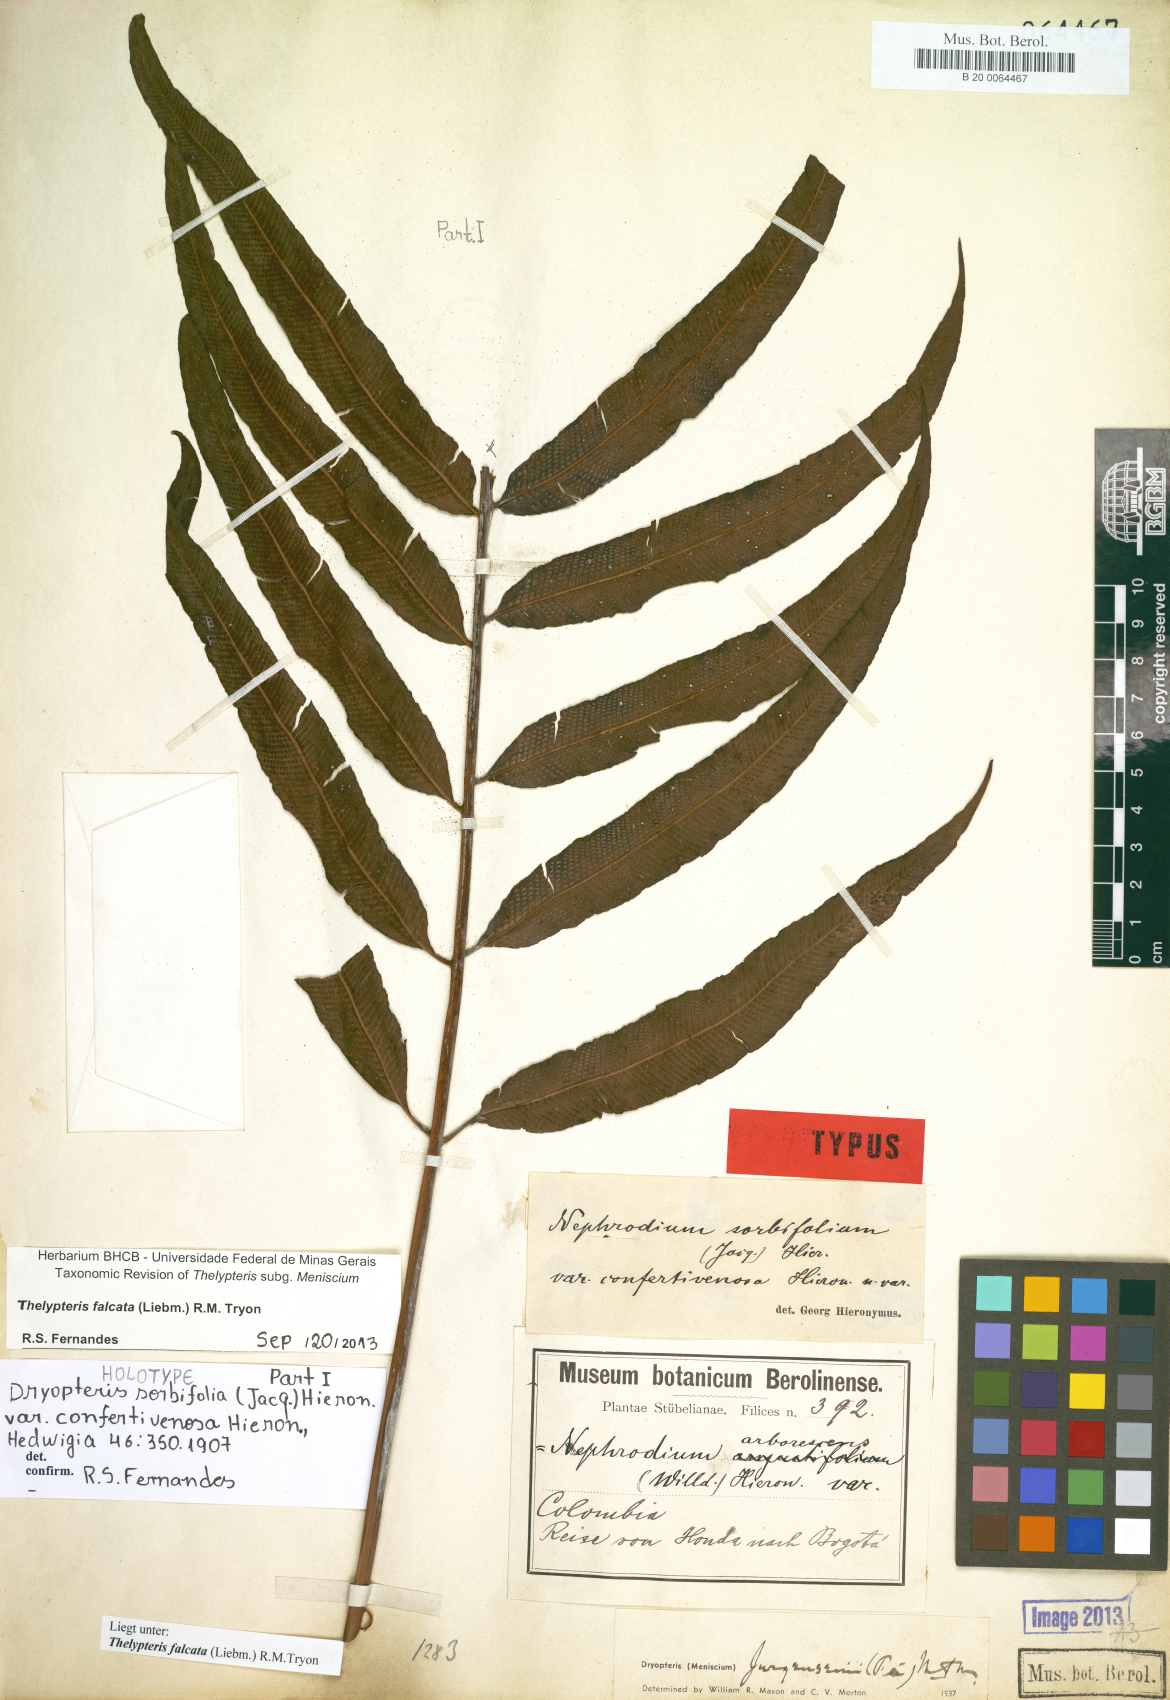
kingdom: Plantae
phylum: Tracheophyta
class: Polypodiopsida
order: Polypodiales
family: Thelypteridaceae
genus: Meniscium
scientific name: Meniscium falcatum
